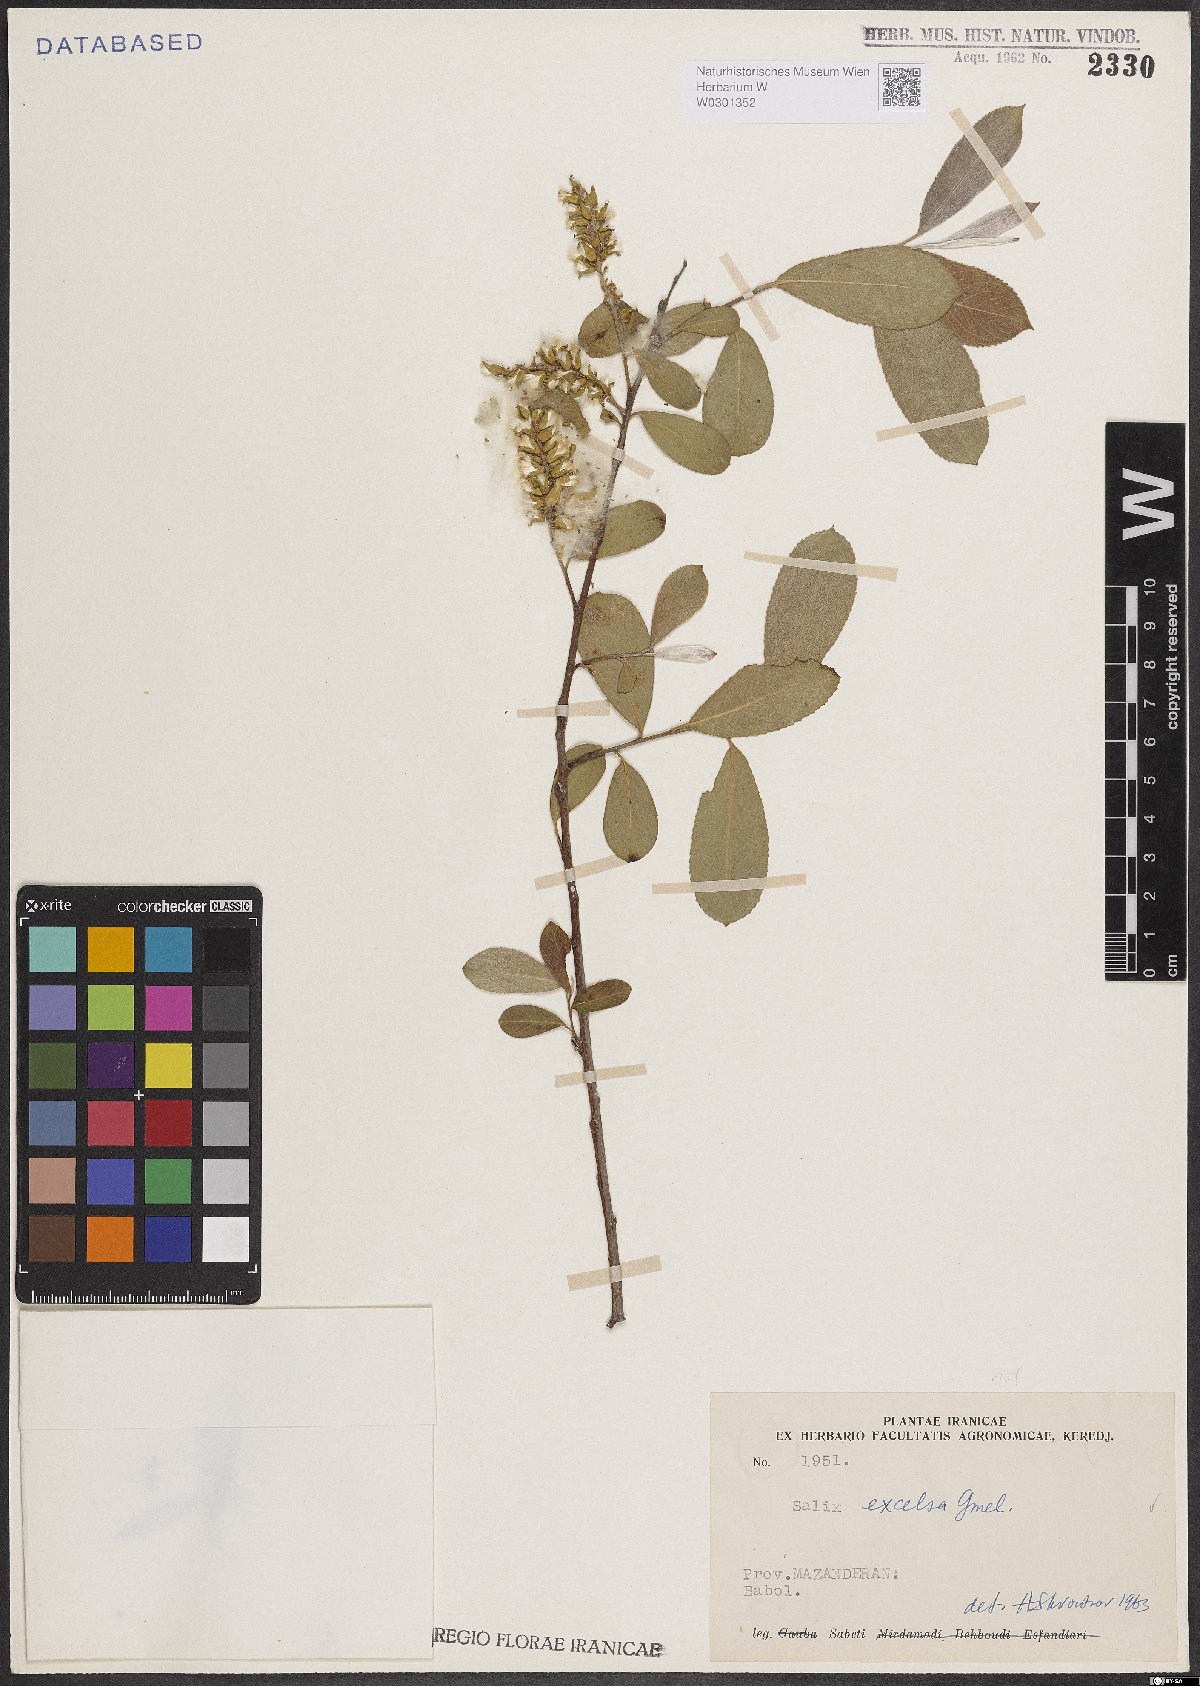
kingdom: Plantae
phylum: Tracheophyta
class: Magnoliopsida
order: Malpighiales
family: Salicaceae
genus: Salix
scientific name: Salix excelsa
